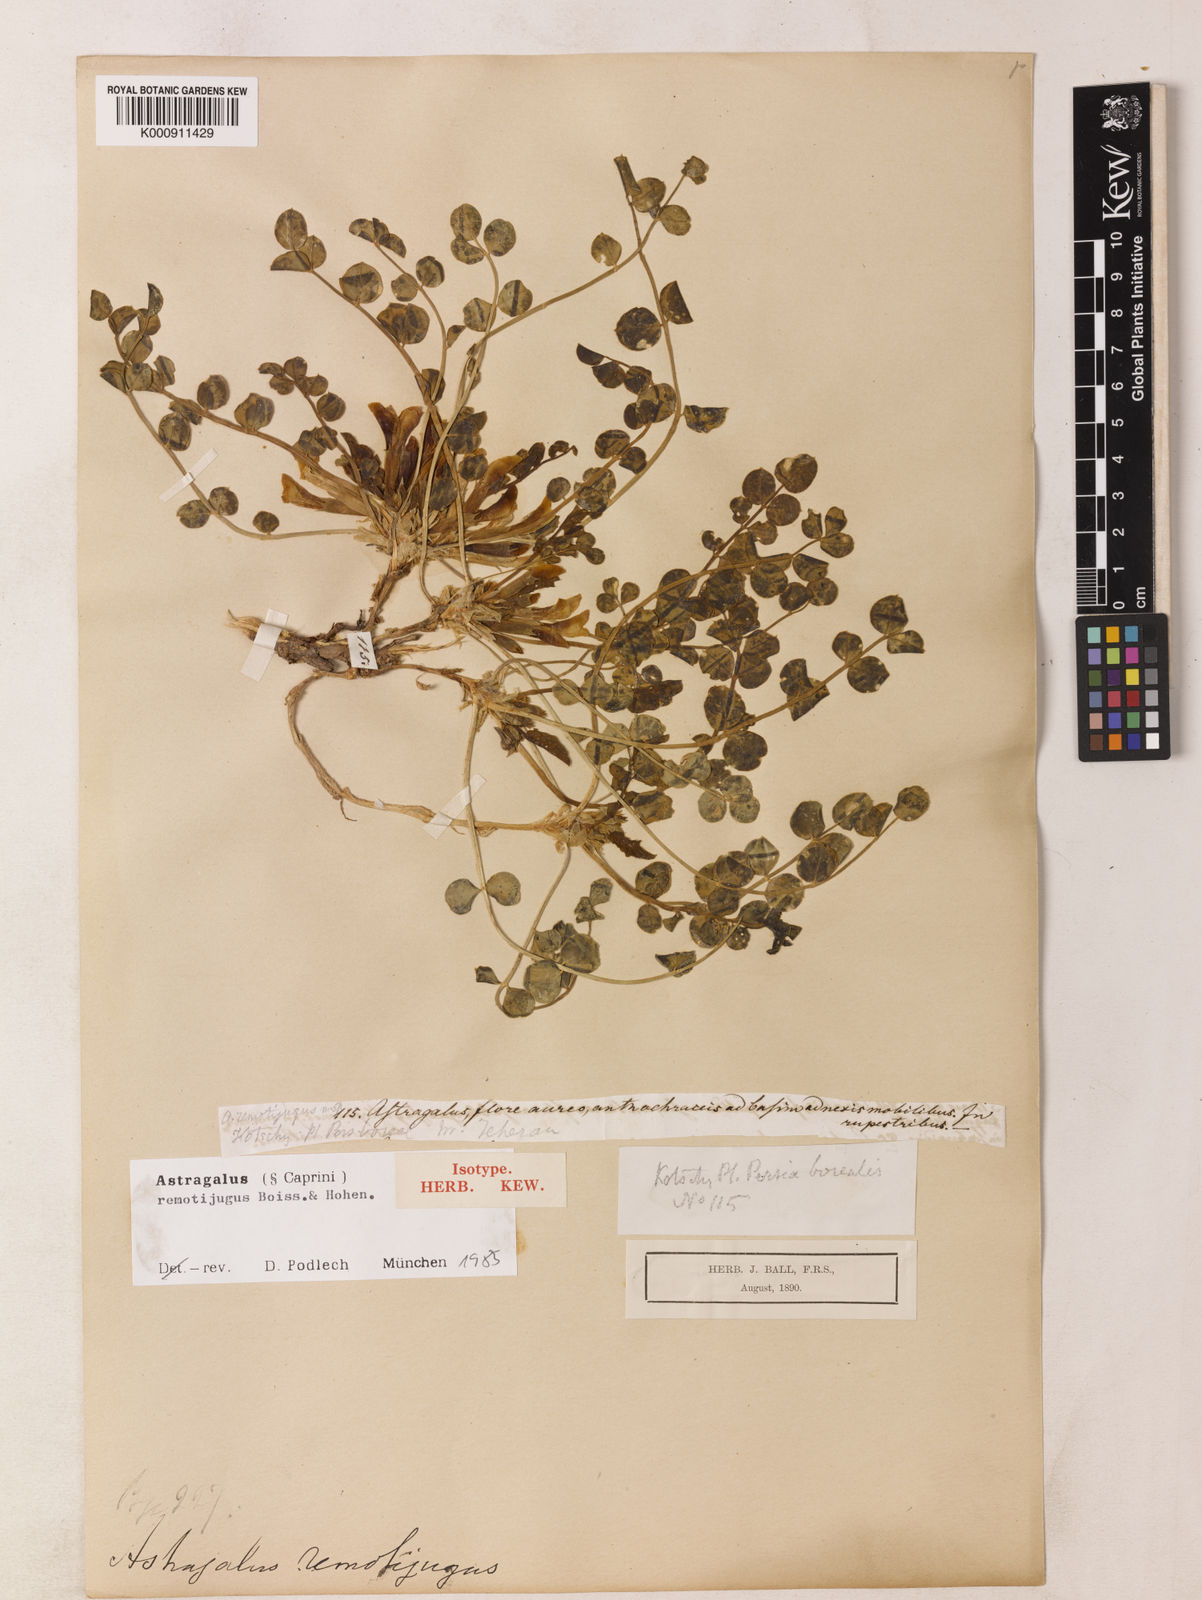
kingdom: Plantae
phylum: Tracheophyta
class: Magnoliopsida
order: Fabales
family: Fabaceae
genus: Astragalus
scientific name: Astragalus remotijugus
